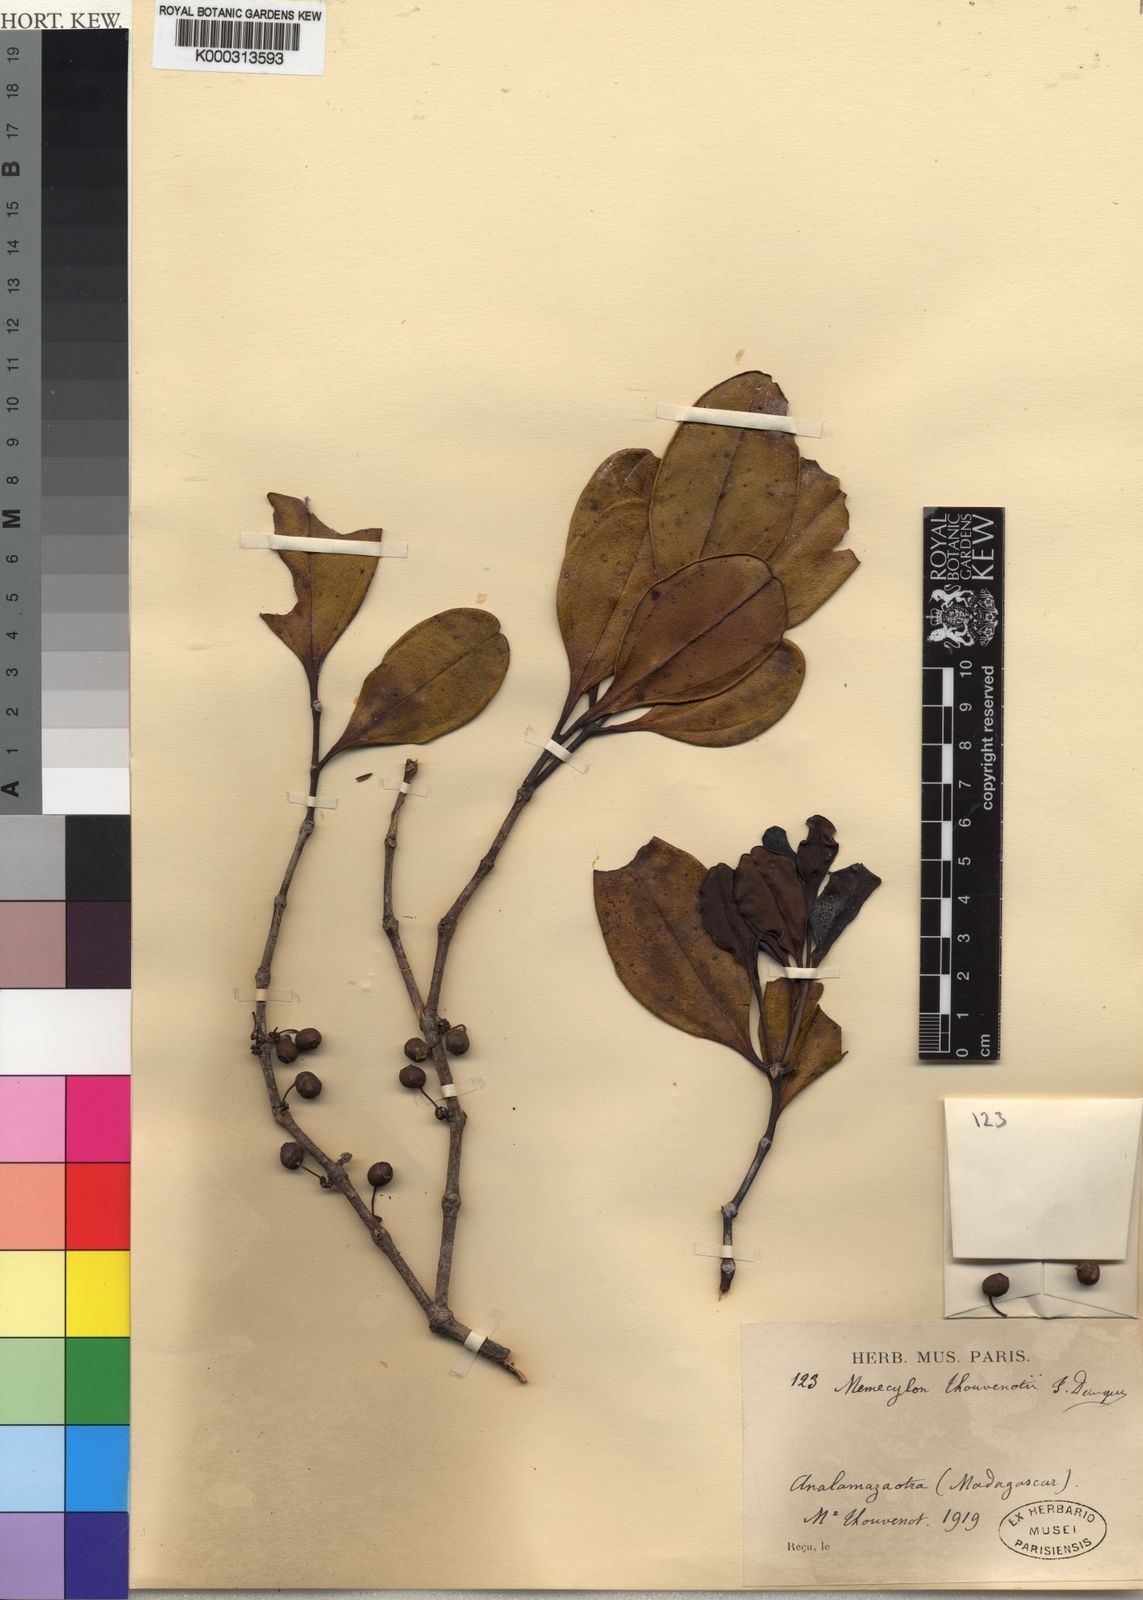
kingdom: Plantae
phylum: Tracheophyta
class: Magnoliopsida
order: Myrtales
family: Melastomataceae
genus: Lijndenia
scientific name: Lijndenia
